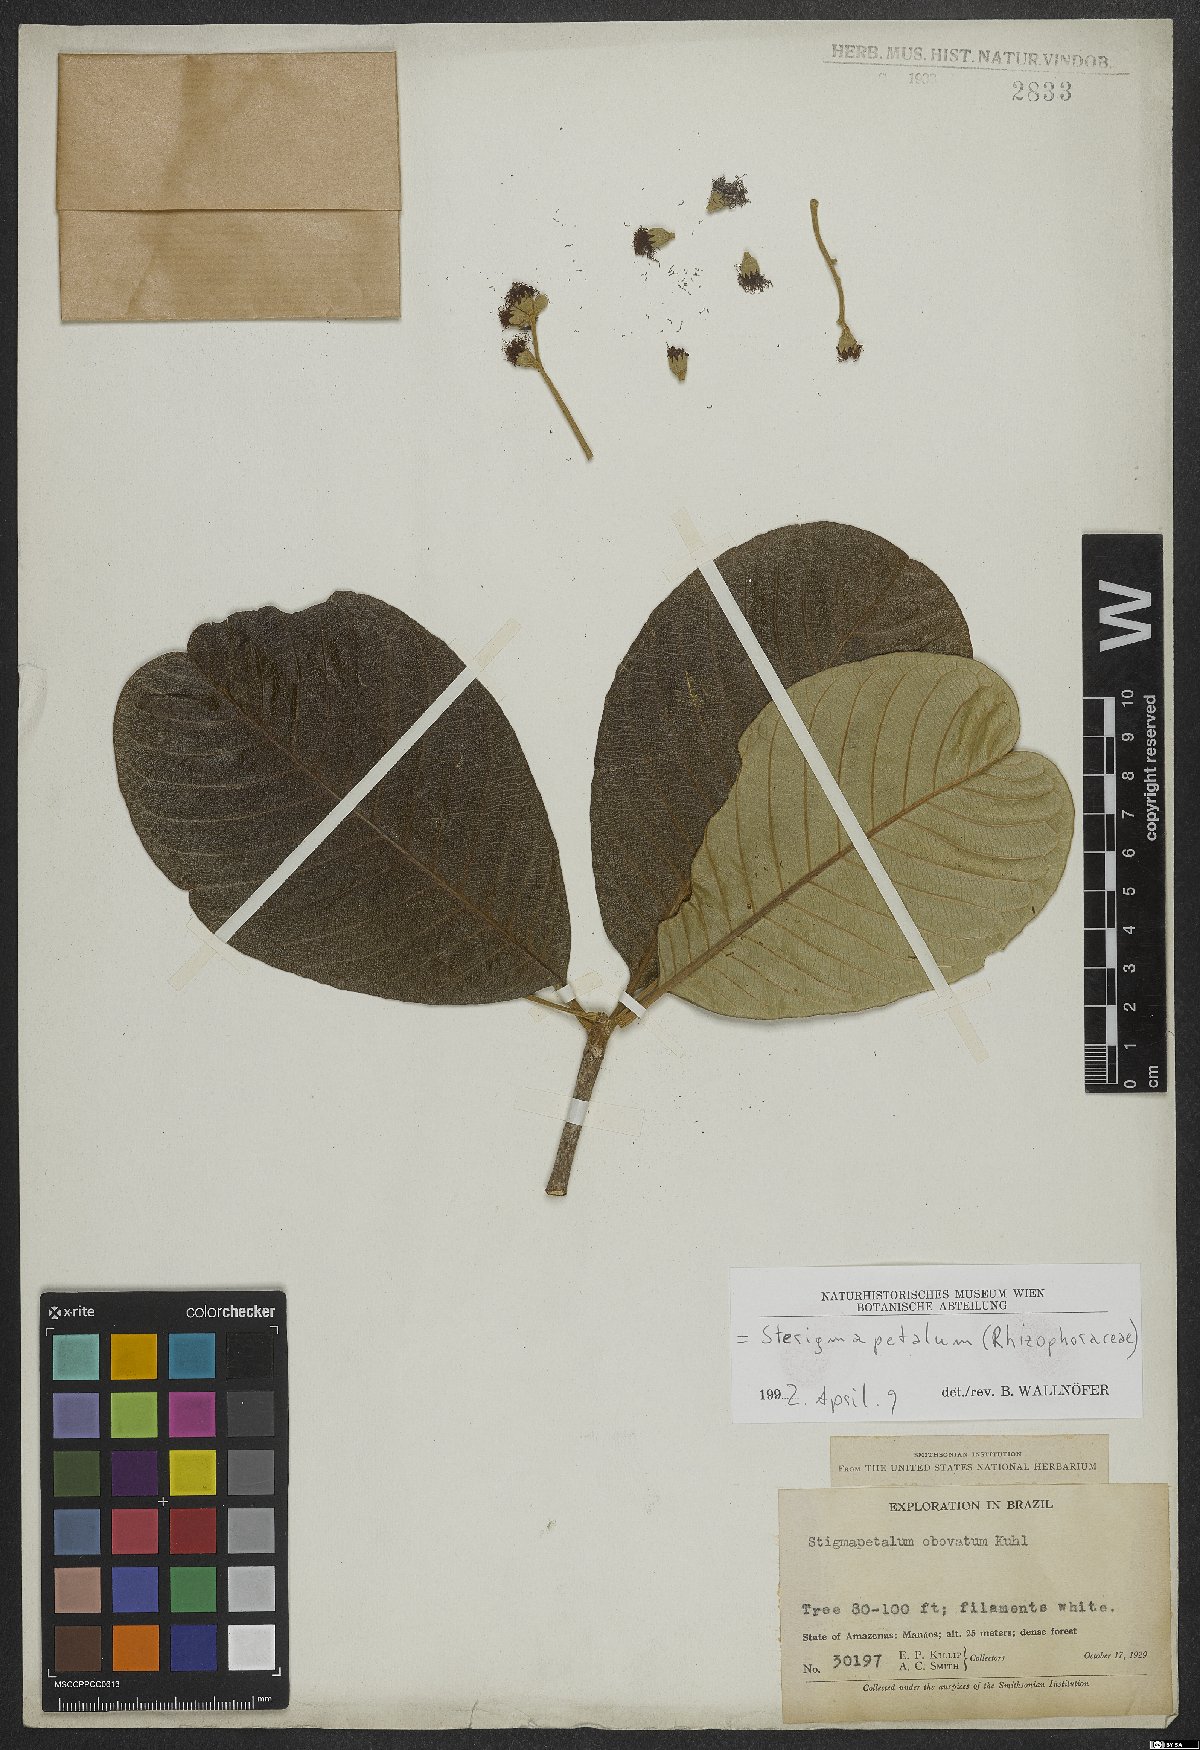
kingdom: Plantae
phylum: Tracheophyta
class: Magnoliopsida
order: Malpighiales
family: Rhizophoraceae
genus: Sterigmapetalum
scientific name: Sterigmapetalum obovatum
